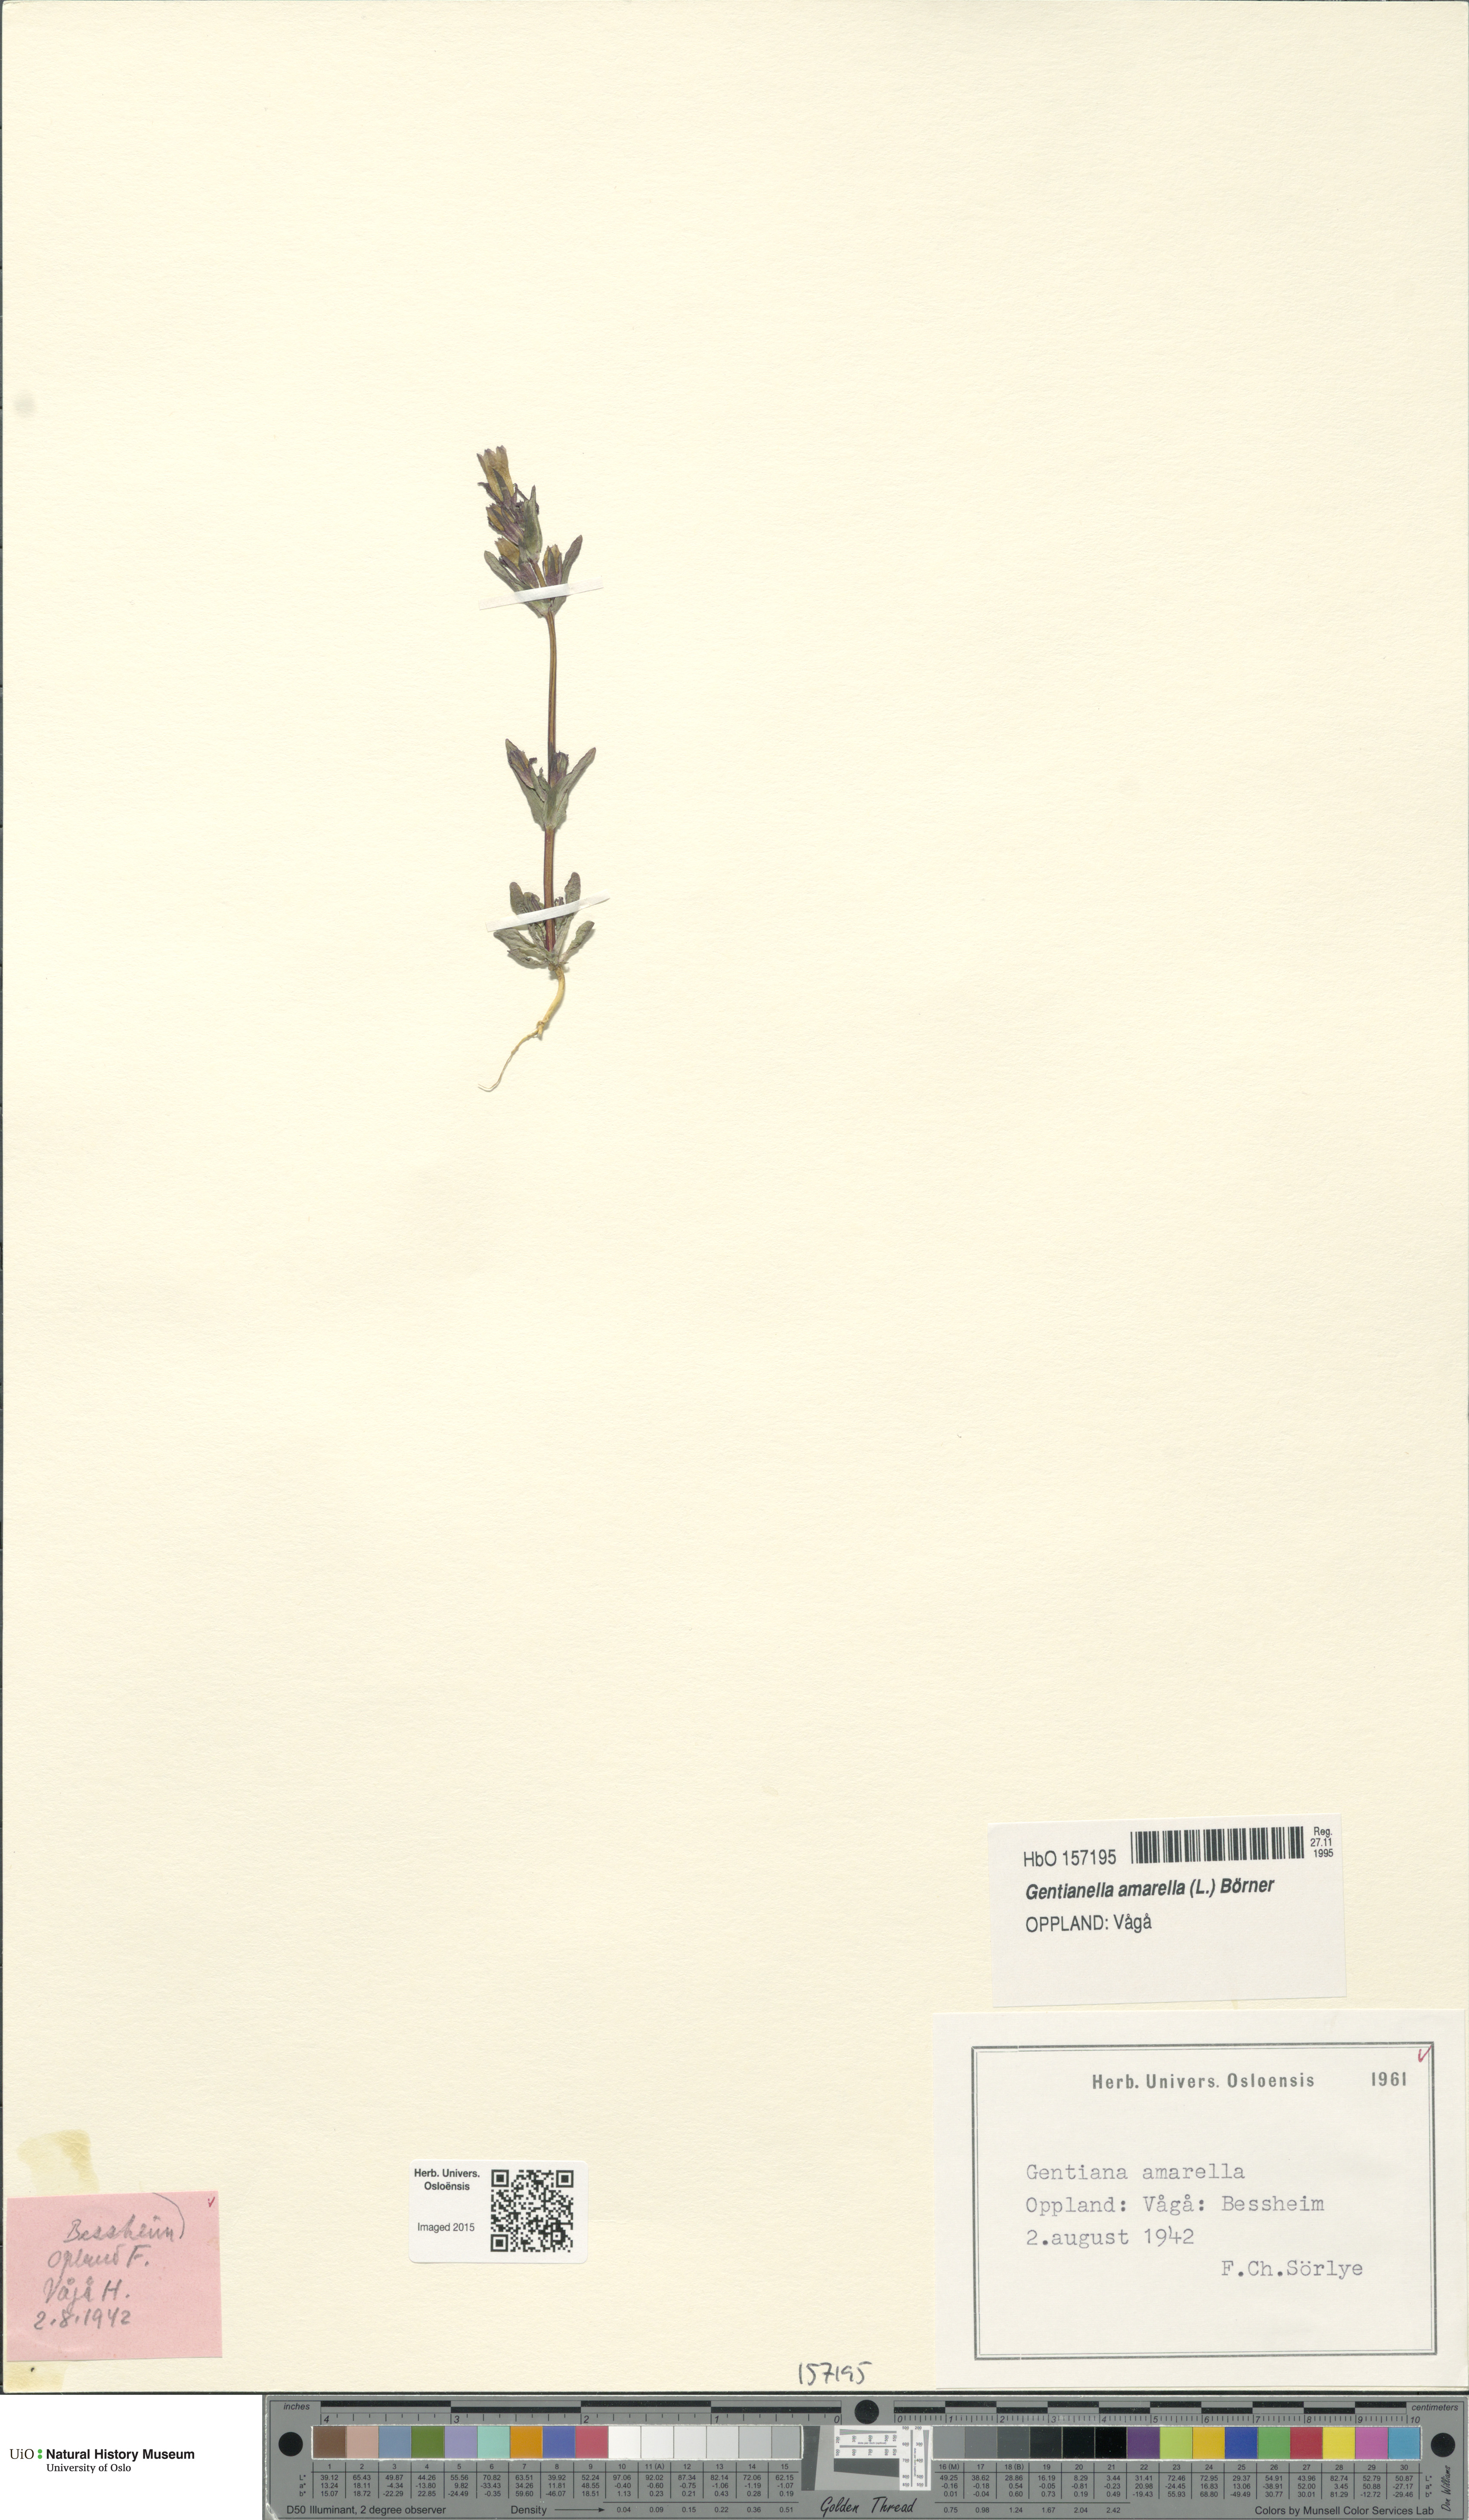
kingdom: Plantae
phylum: Tracheophyta
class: Magnoliopsida
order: Gentianales
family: Gentianaceae
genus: Gentianella
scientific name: Gentianella amarella
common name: Autumn gentian
